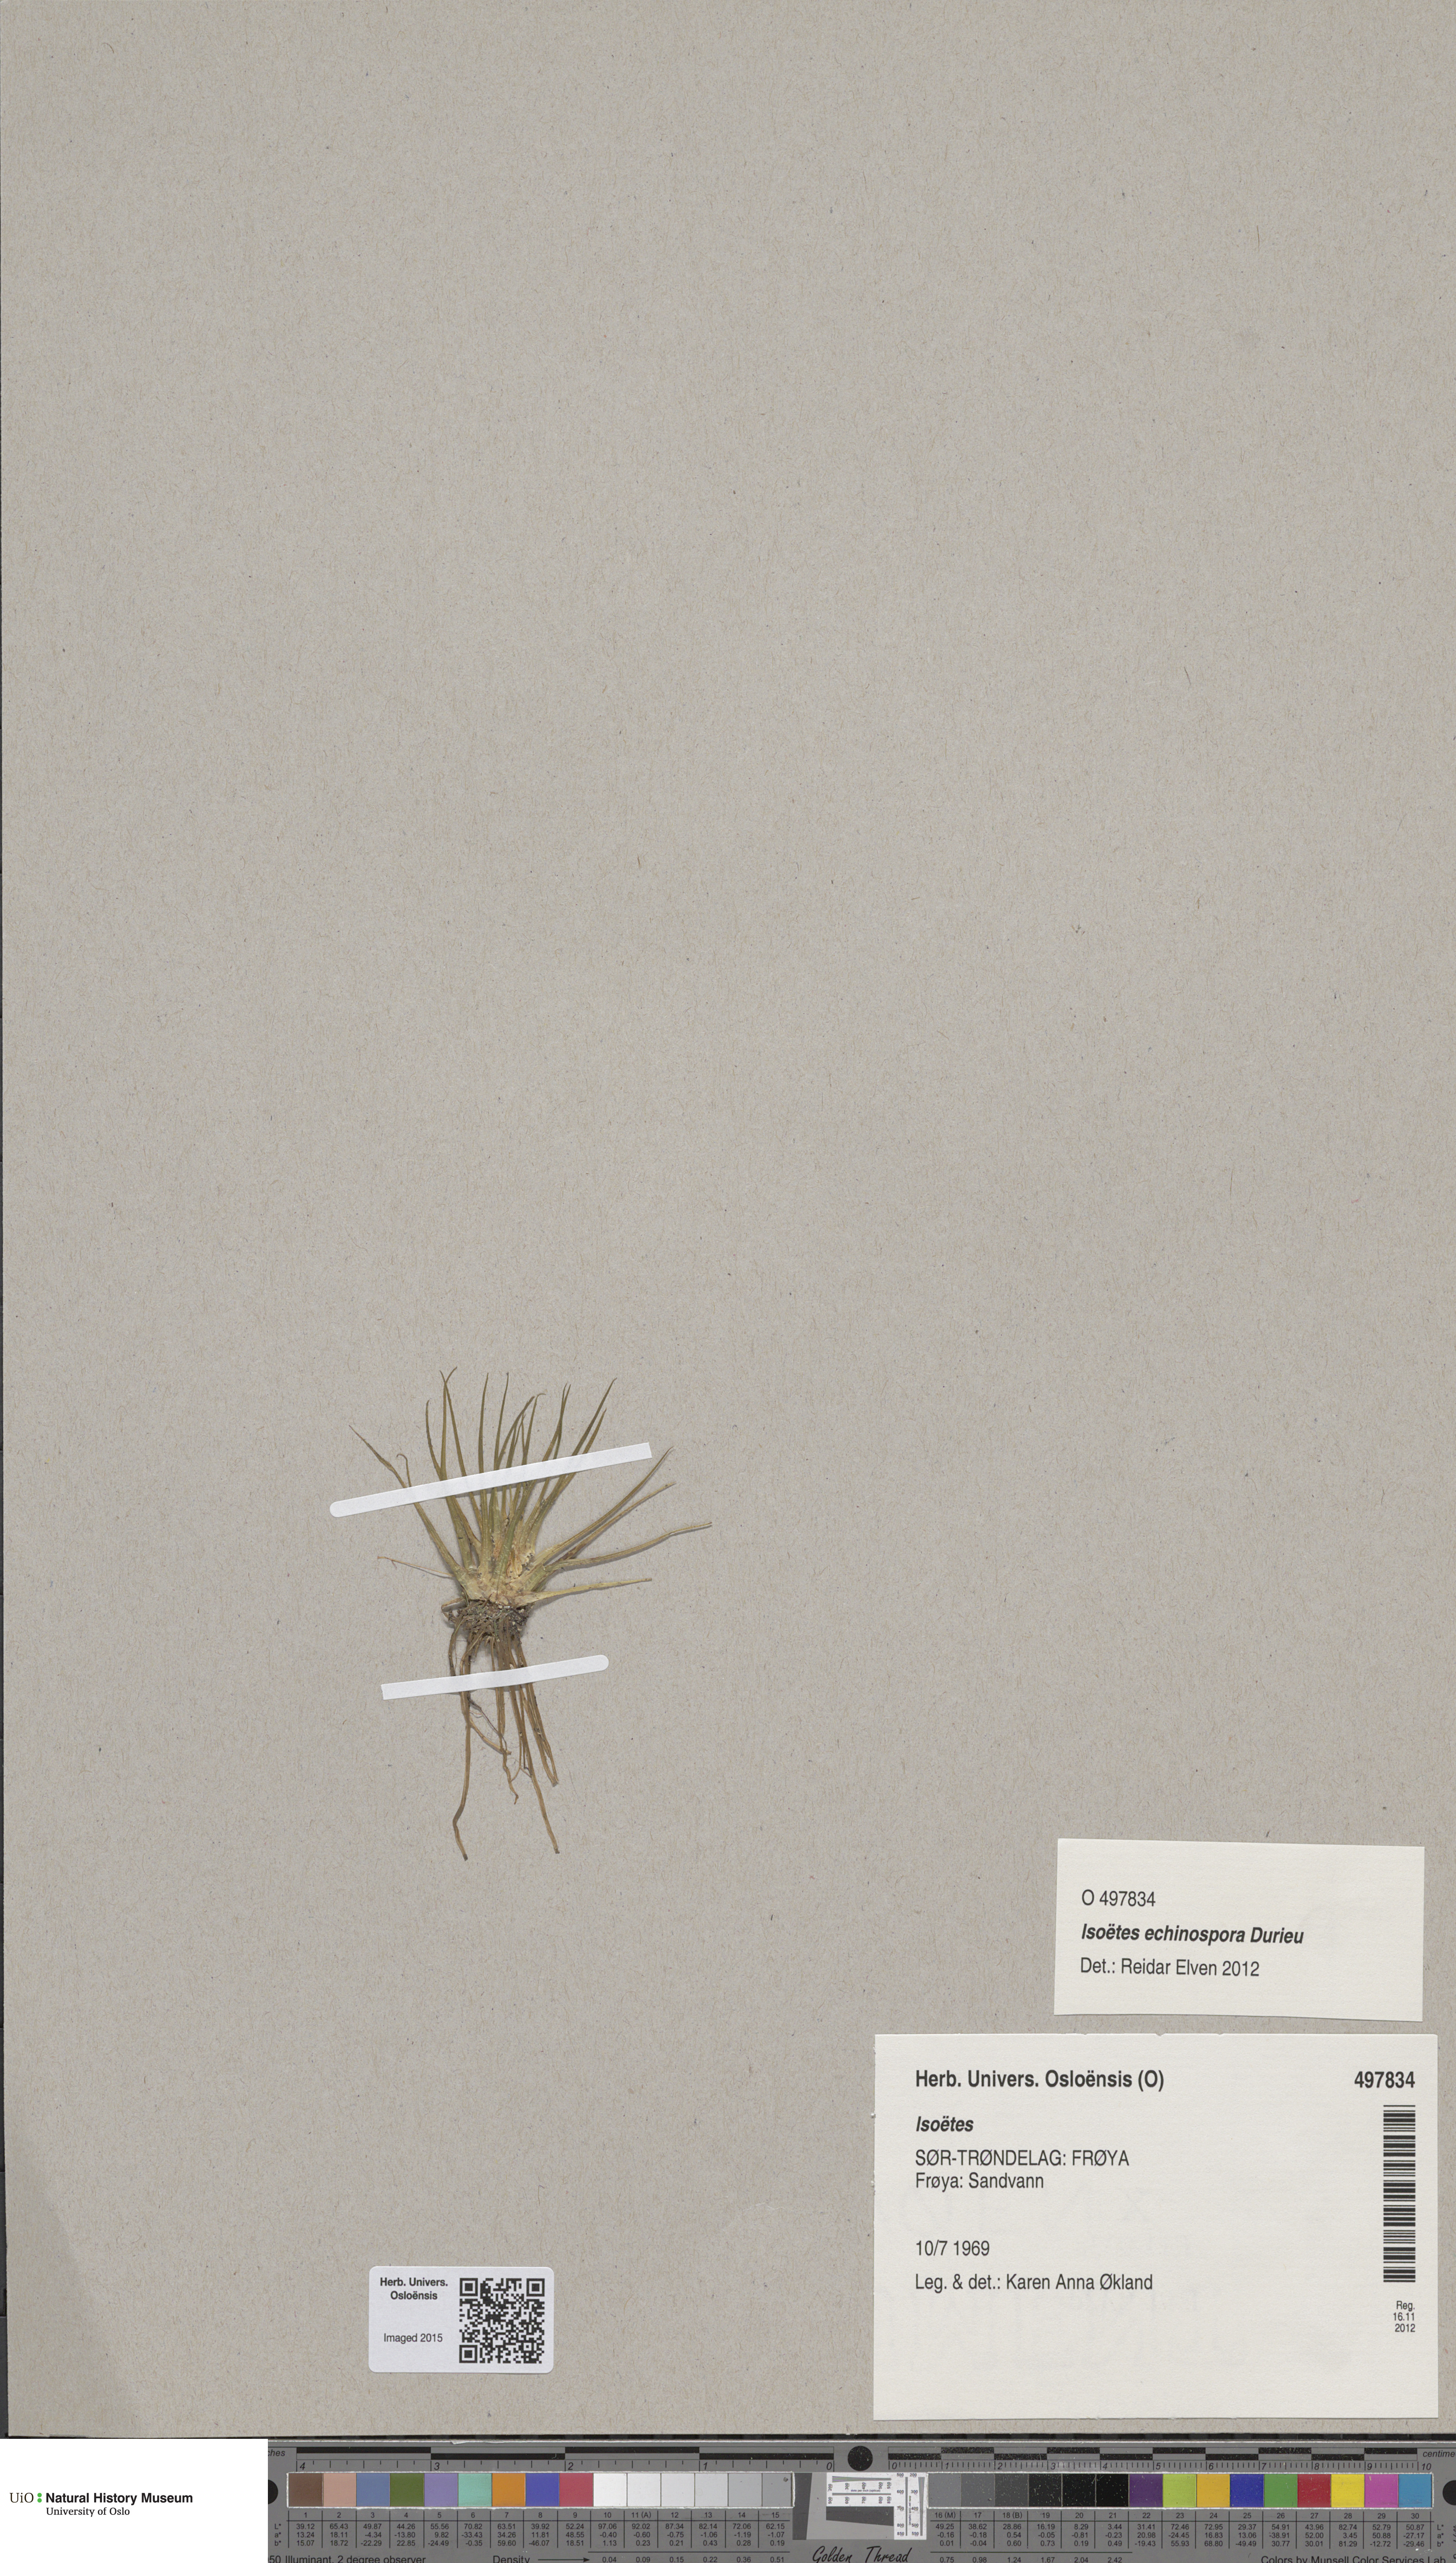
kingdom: Plantae
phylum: Tracheophyta
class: Lycopodiopsida
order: Isoetales
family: Isoetaceae
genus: Isoetes
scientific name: Isoetes
